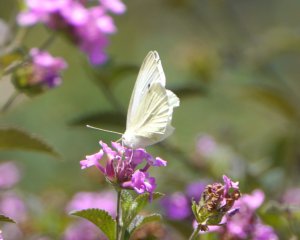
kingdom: Animalia
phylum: Arthropoda
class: Insecta
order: Lepidoptera
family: Pieridae
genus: Pieris
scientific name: Pieris rapae
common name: Cabbage White
